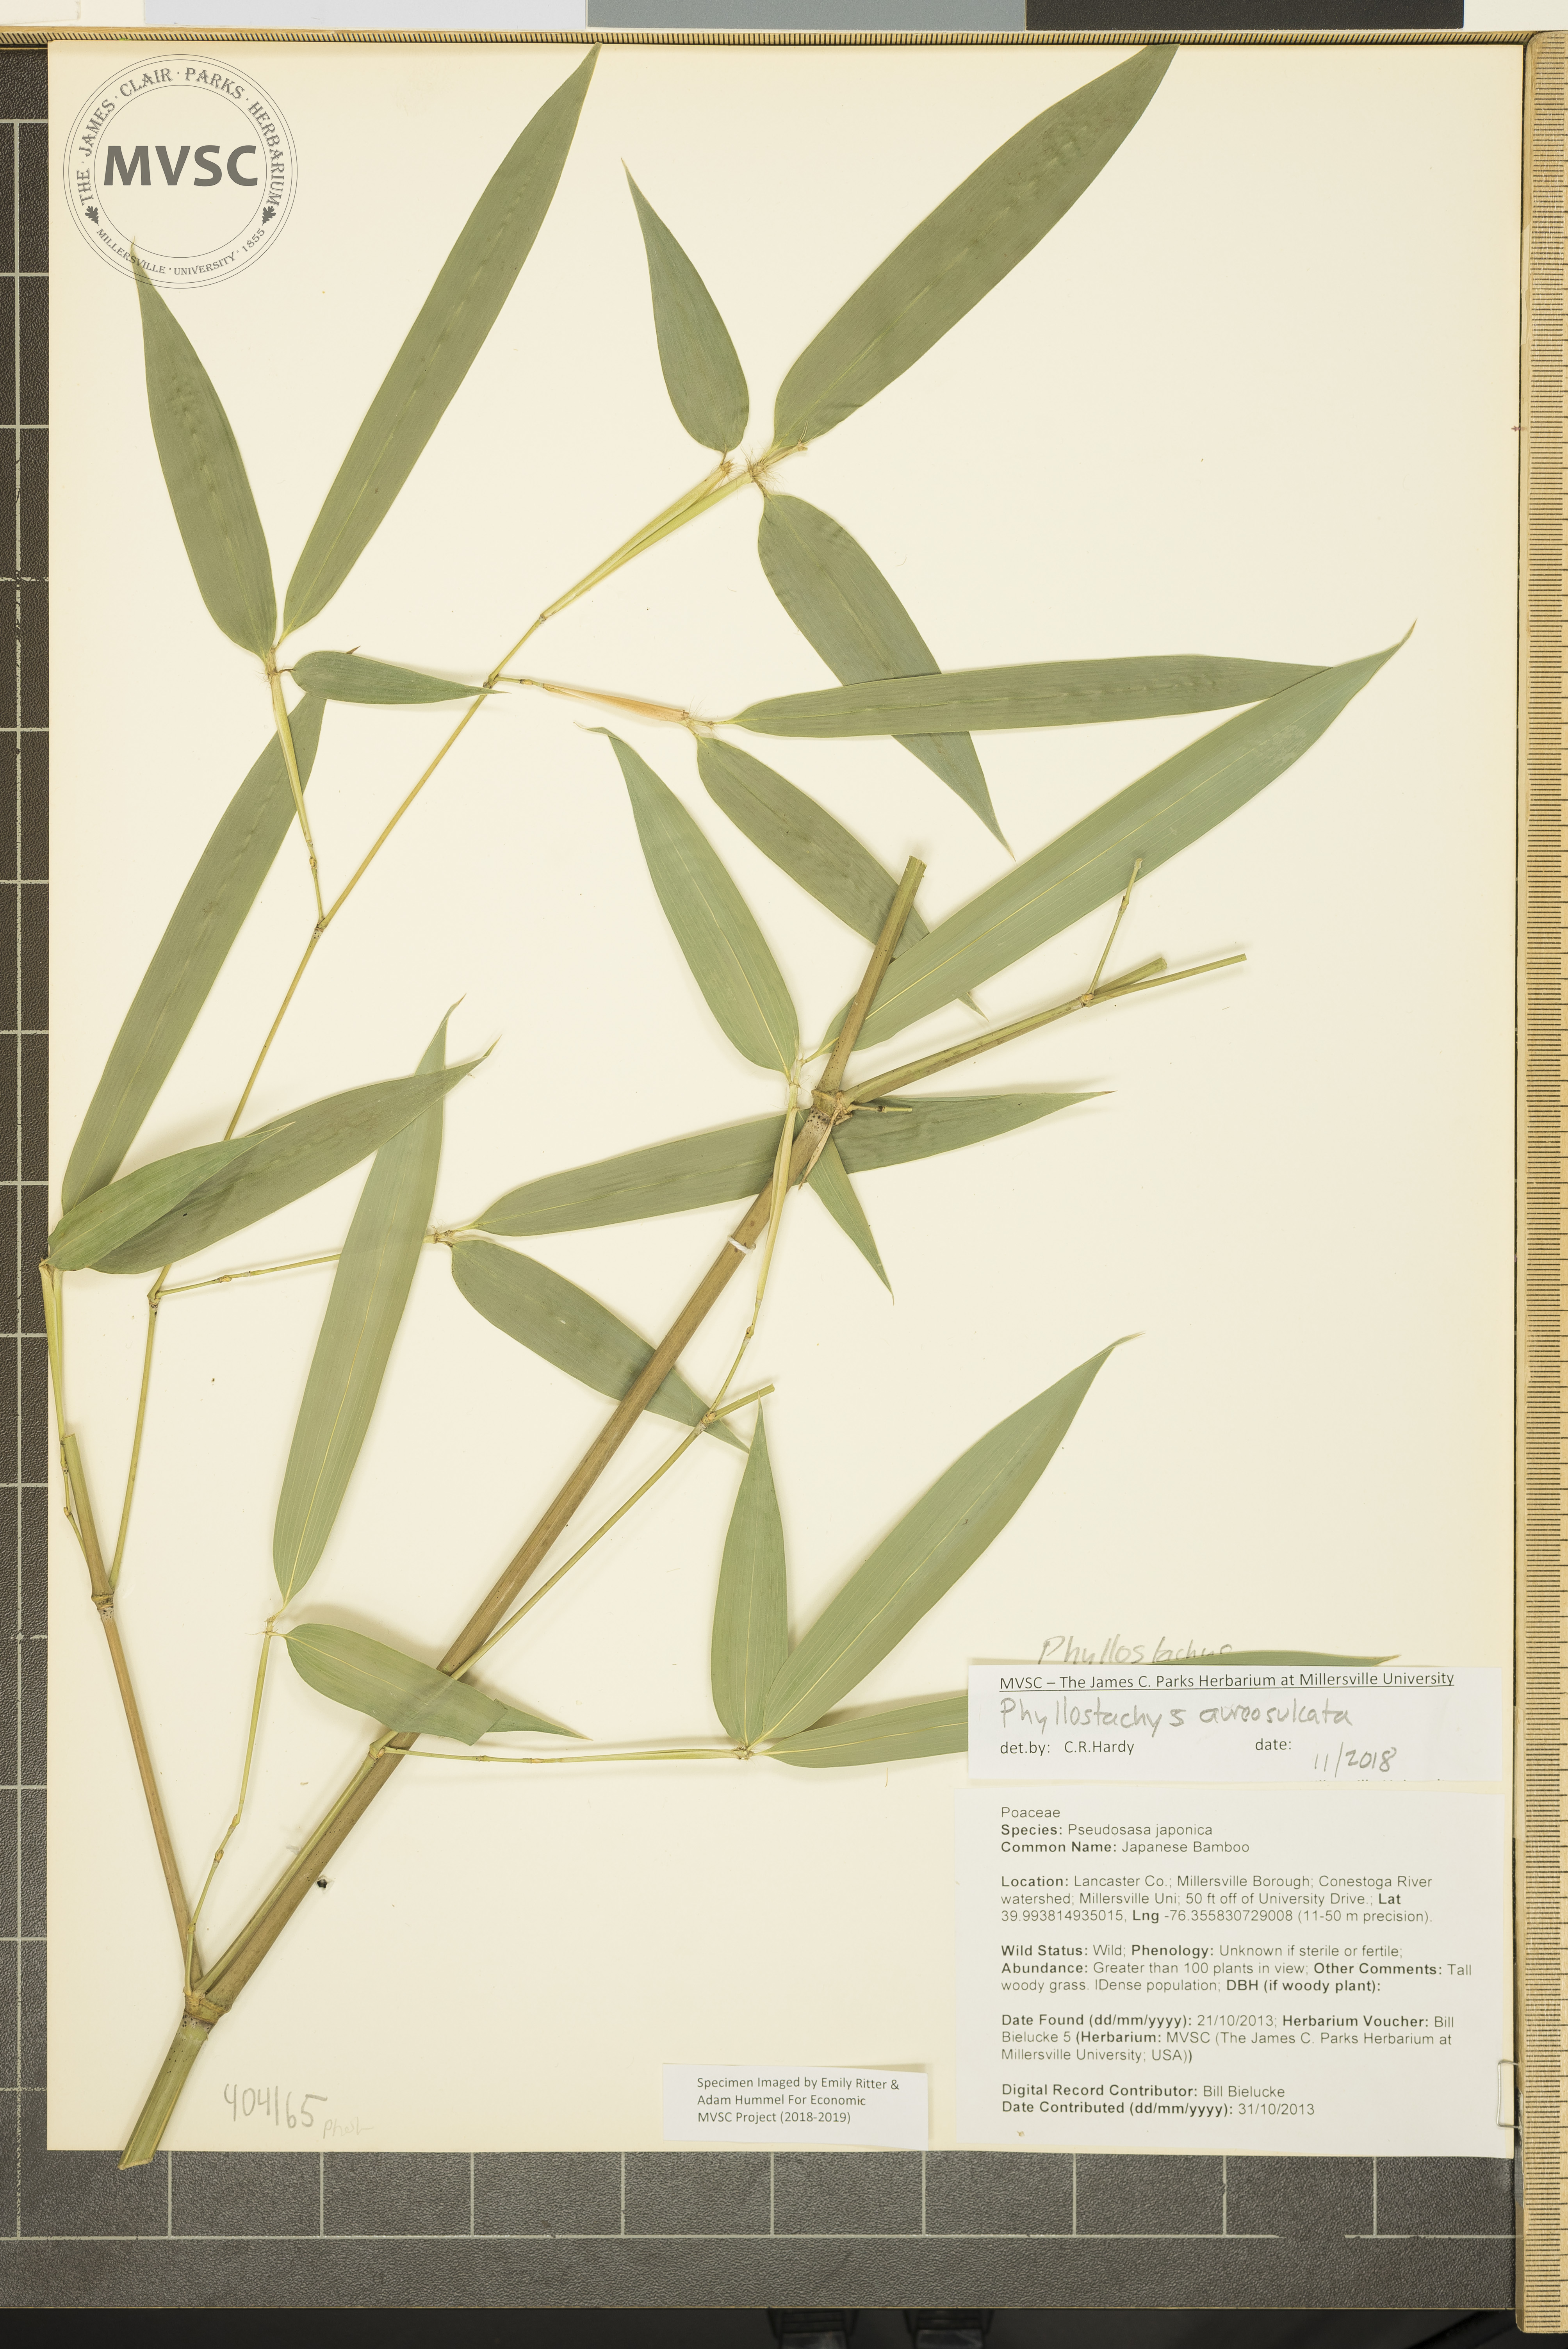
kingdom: Plantae
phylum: Tracheophyta
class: Liliopsida
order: Poales
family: Poaceae
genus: Phyllostachys
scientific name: Phyllostachys aureosulcata
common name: Bamboo
